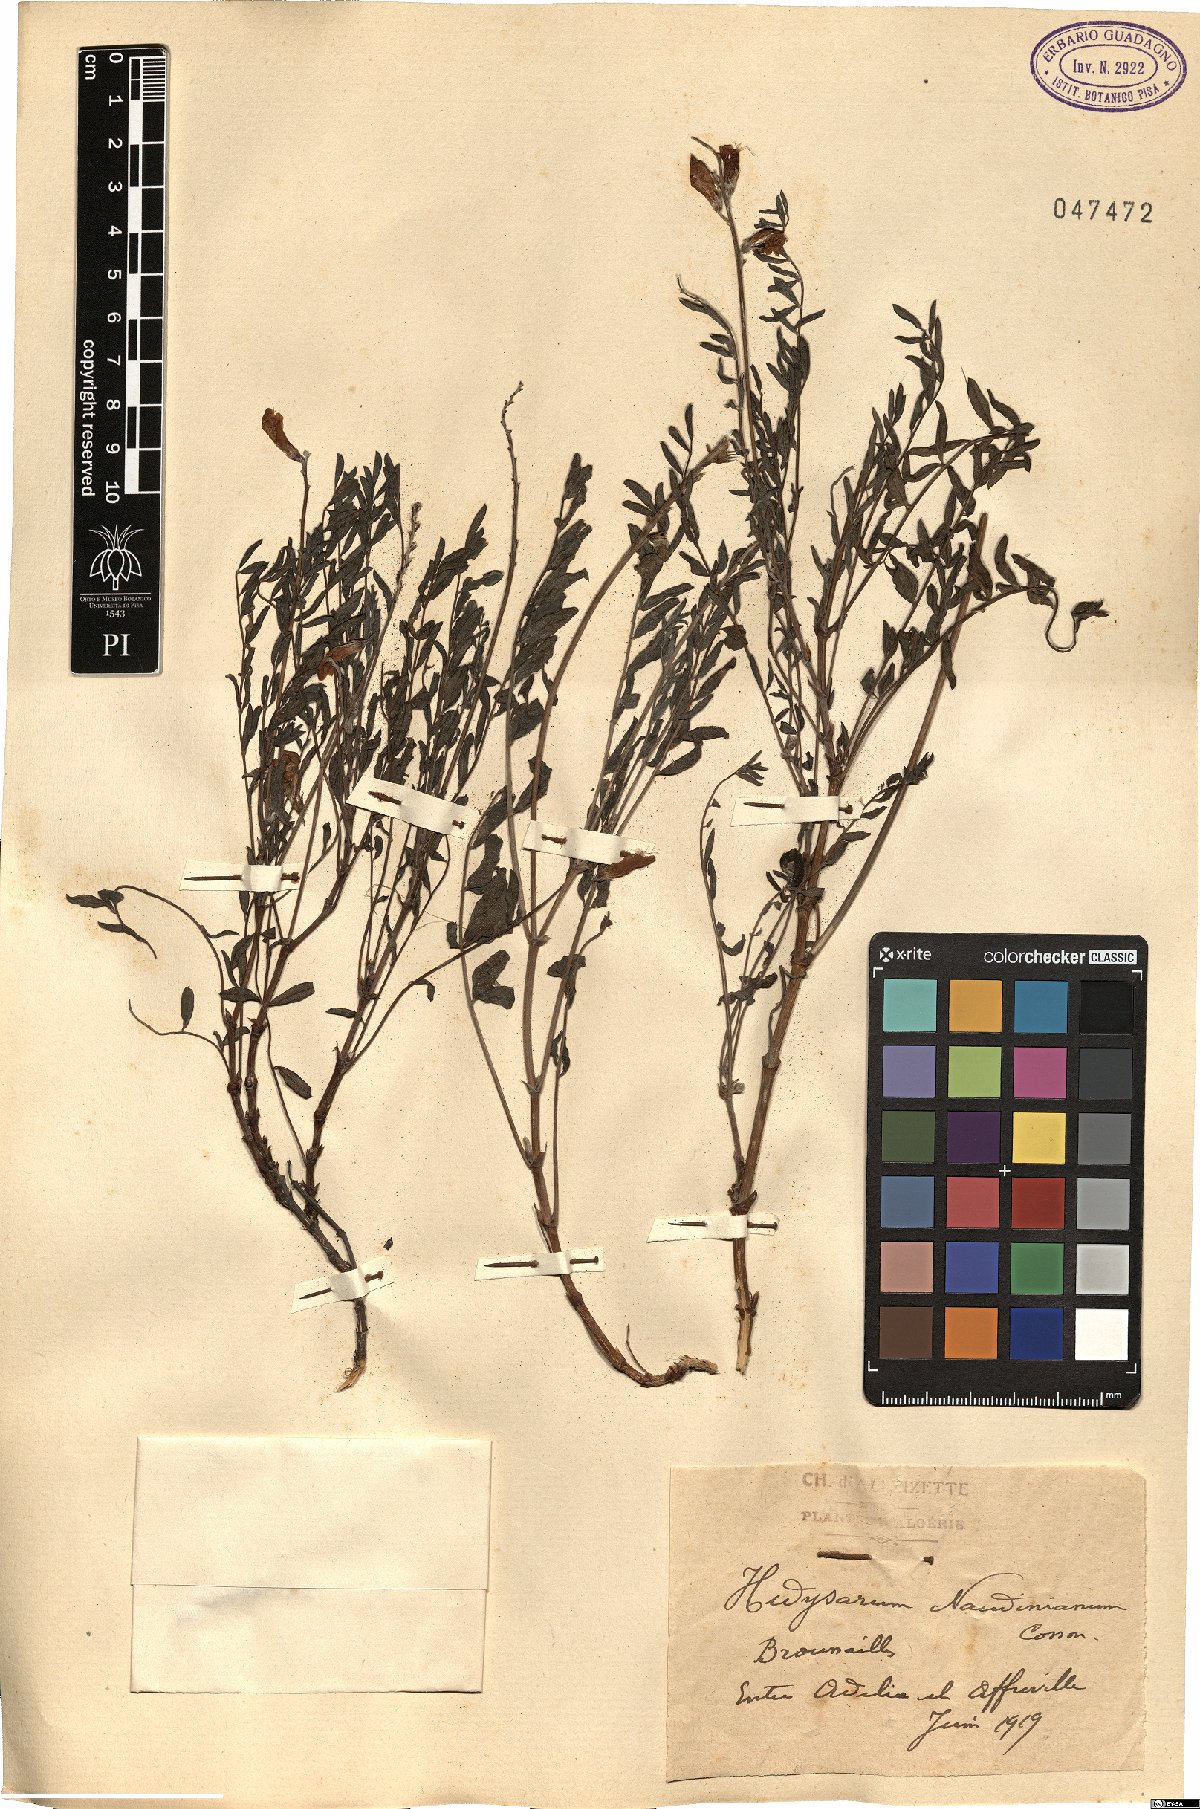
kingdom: Plantae
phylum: Tracheophyta
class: Magnoliopsida
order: Fabales
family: Fabaceae
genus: Hedysarum
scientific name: Hedysarum naudinianum
